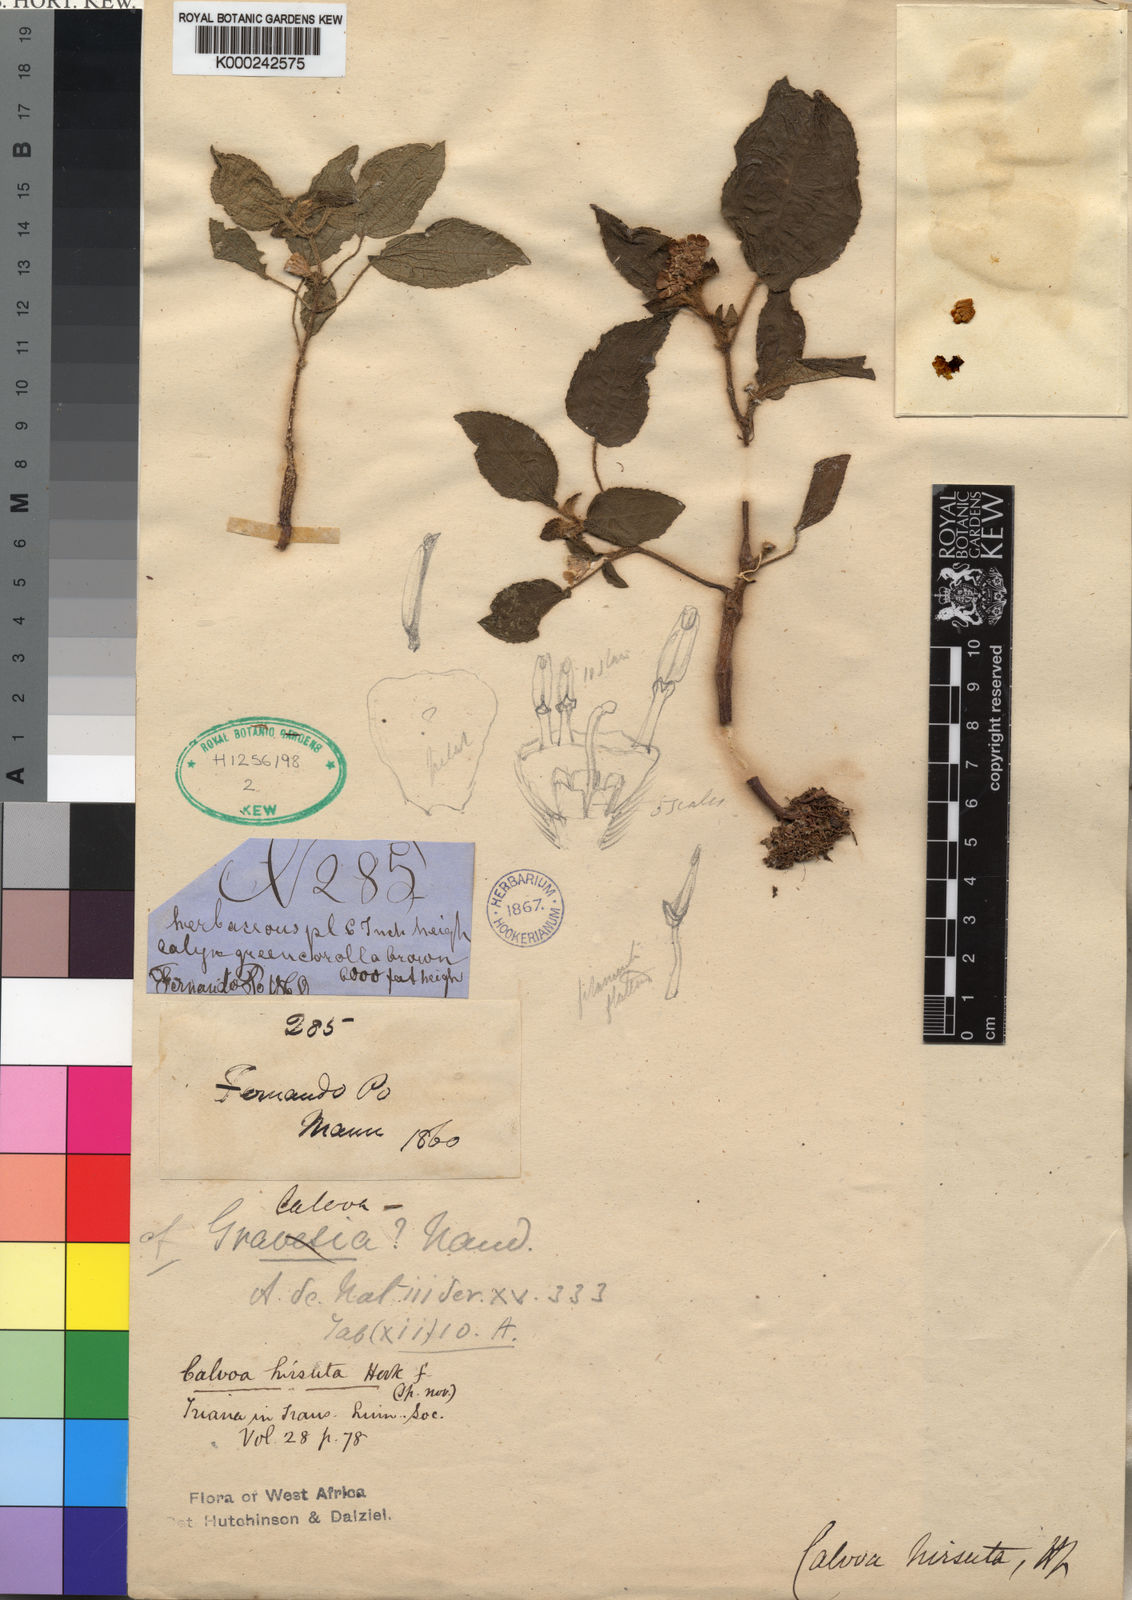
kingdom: Plantae
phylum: Tracheophyta
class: Magnoliopsida
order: Myrtales
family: Melastomataceae
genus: Calvoa
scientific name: Calvoa
